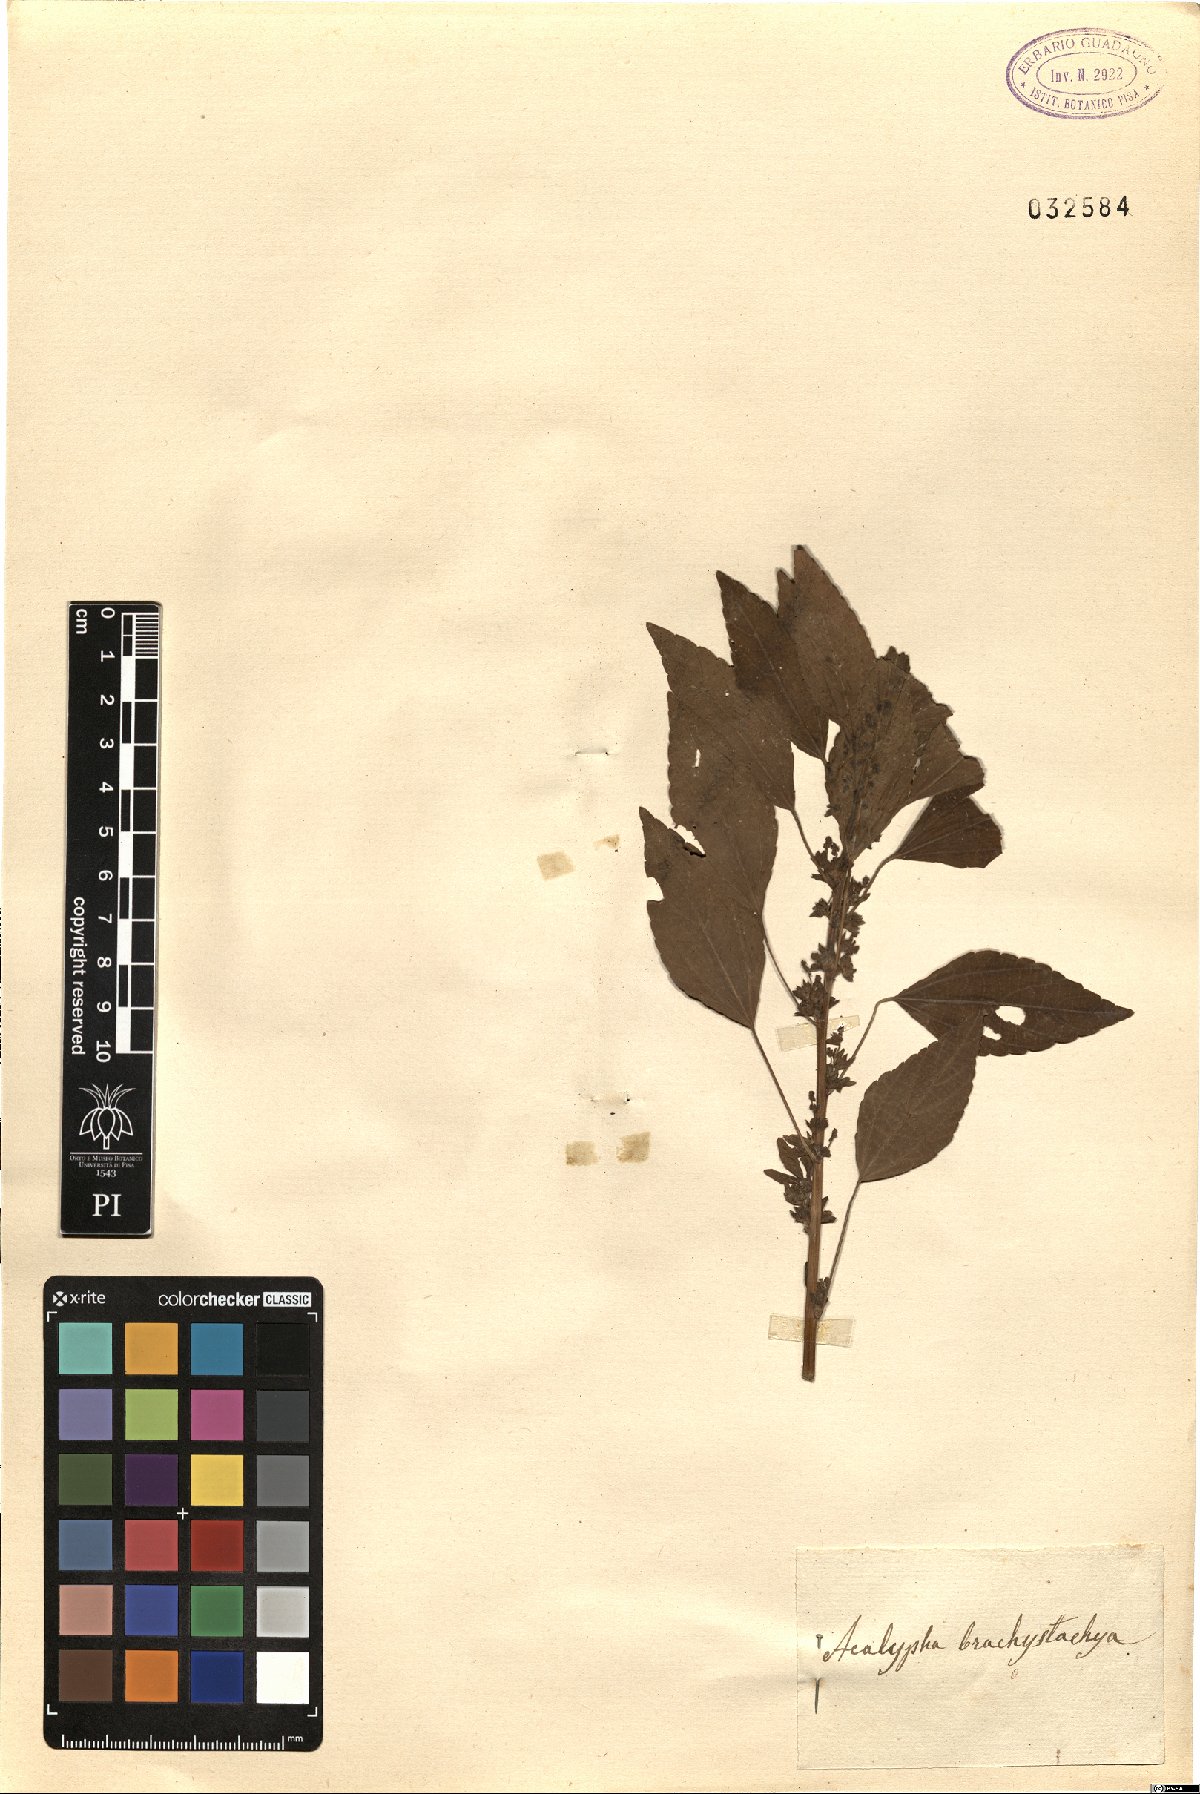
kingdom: Plantae
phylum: Tracheophyta
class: Magnoliopsida
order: Malpighiales
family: Euphorbiaceae
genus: Acalypha
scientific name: Acalypha brachystachya
